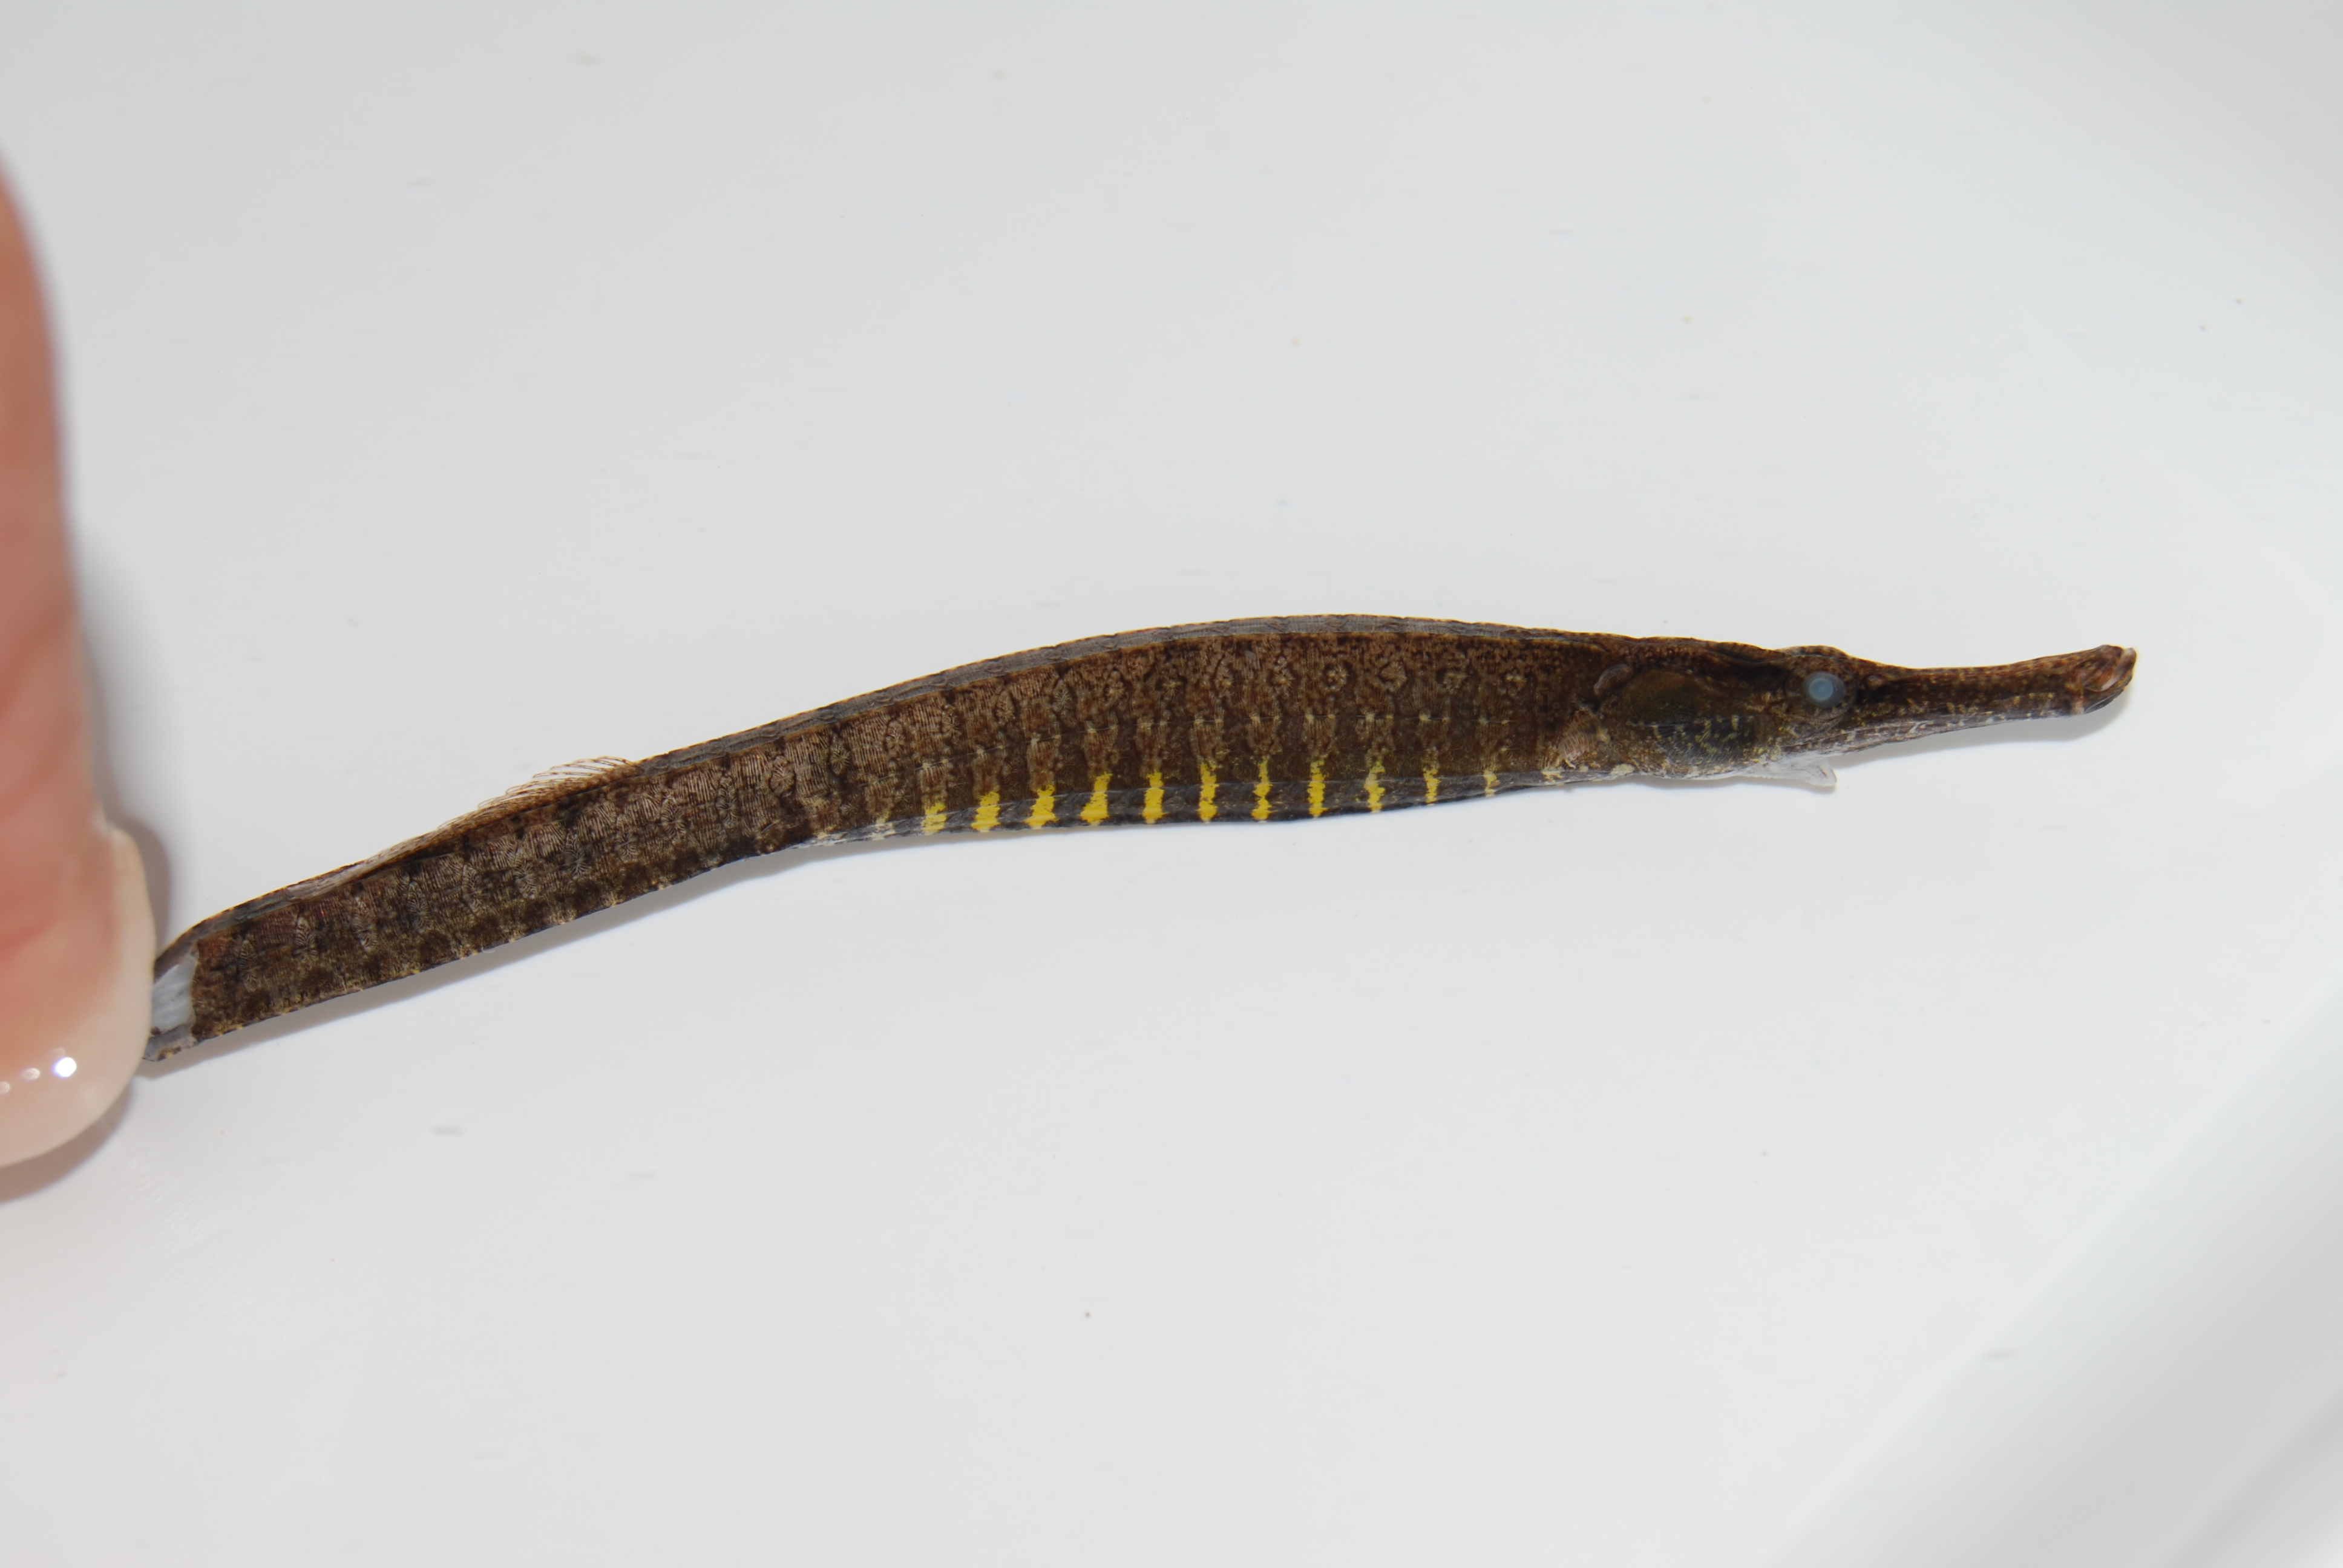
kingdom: Animalia
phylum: Chordata
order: Syngnathiformes
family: Syngnathidae
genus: Hippichthys
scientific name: Hippichthys spicifer
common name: Banded freshwater pipefish
